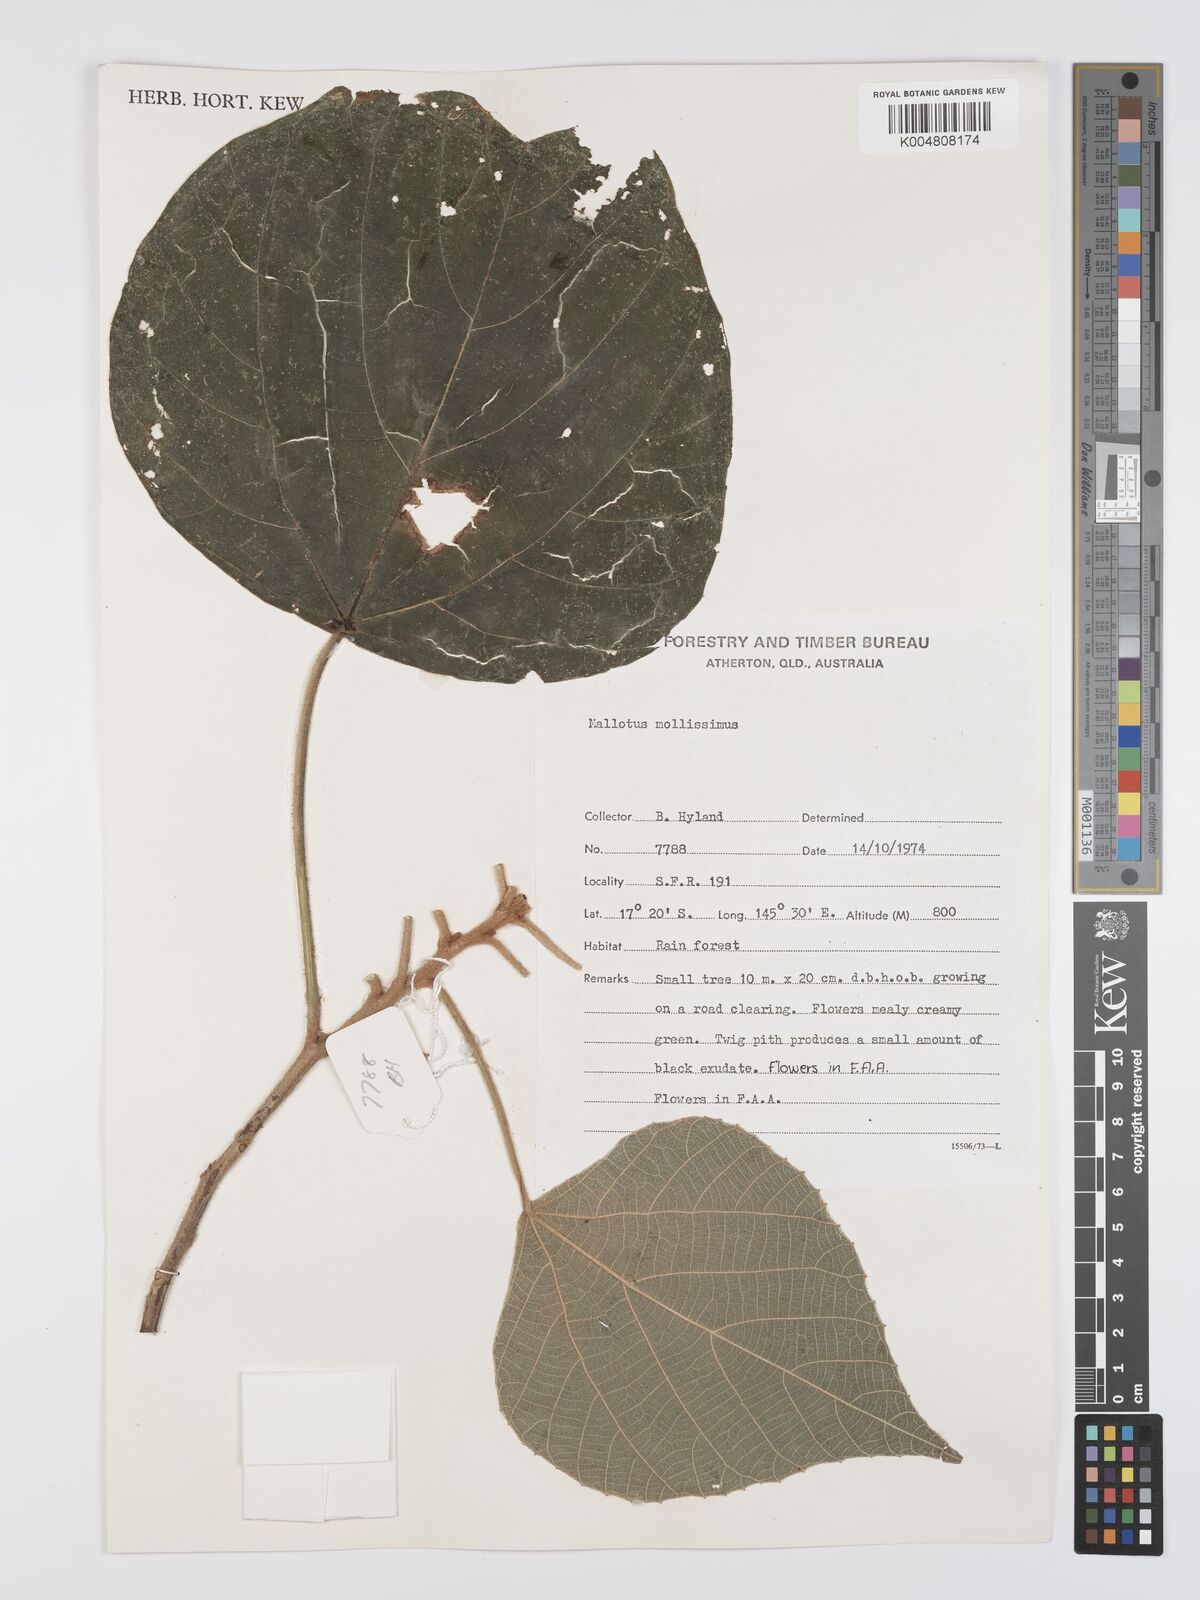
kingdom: Plantae
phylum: Tracheophyta
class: Magnoliopsida
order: Malpighiales
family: Euphorbiaceae
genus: Mallotus
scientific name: Mallotus mollissimus
